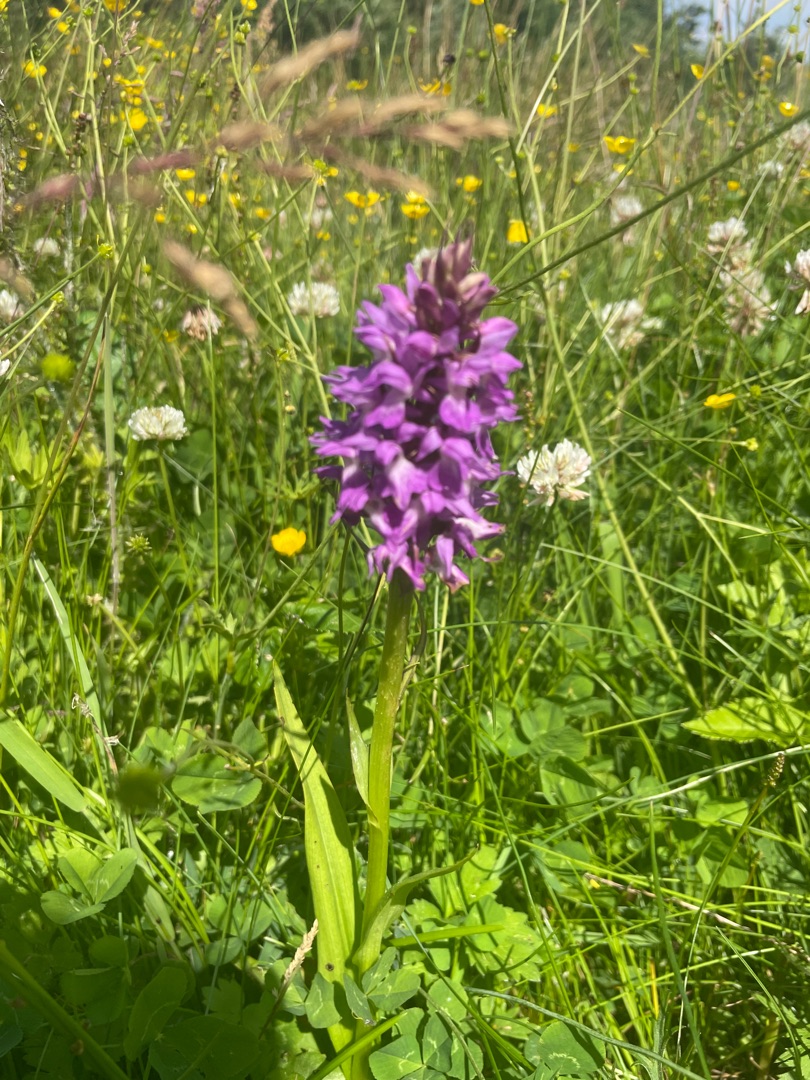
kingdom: Plantae
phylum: Tracheophyta
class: Liliopsida
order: Asparagales
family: Orchidaceae
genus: Dactylorhiza
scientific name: Dactylorhiza majalis
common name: Priklæbet gøgeurt
